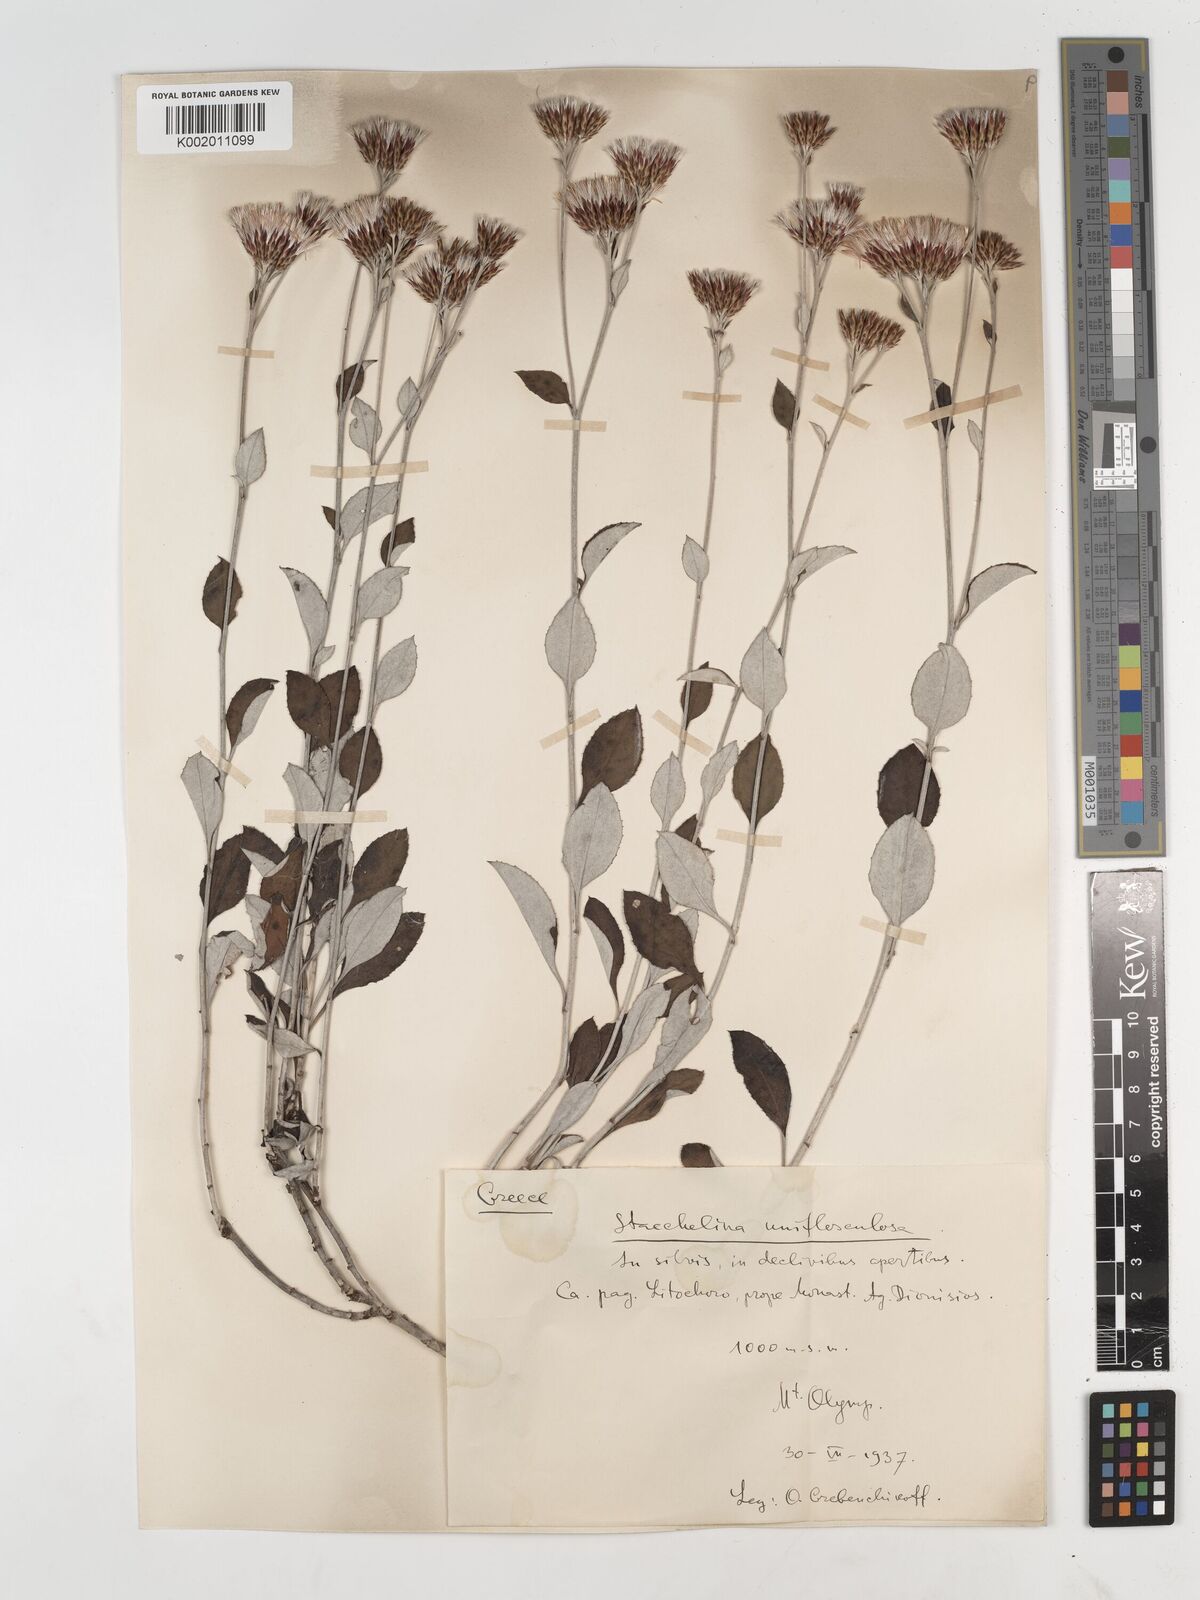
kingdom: Plantae
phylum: Tracheophyta
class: Magnoliopsida
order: Asterales
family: Asteraceae
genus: Staehelina
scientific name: Staehelina uniflosculosa
